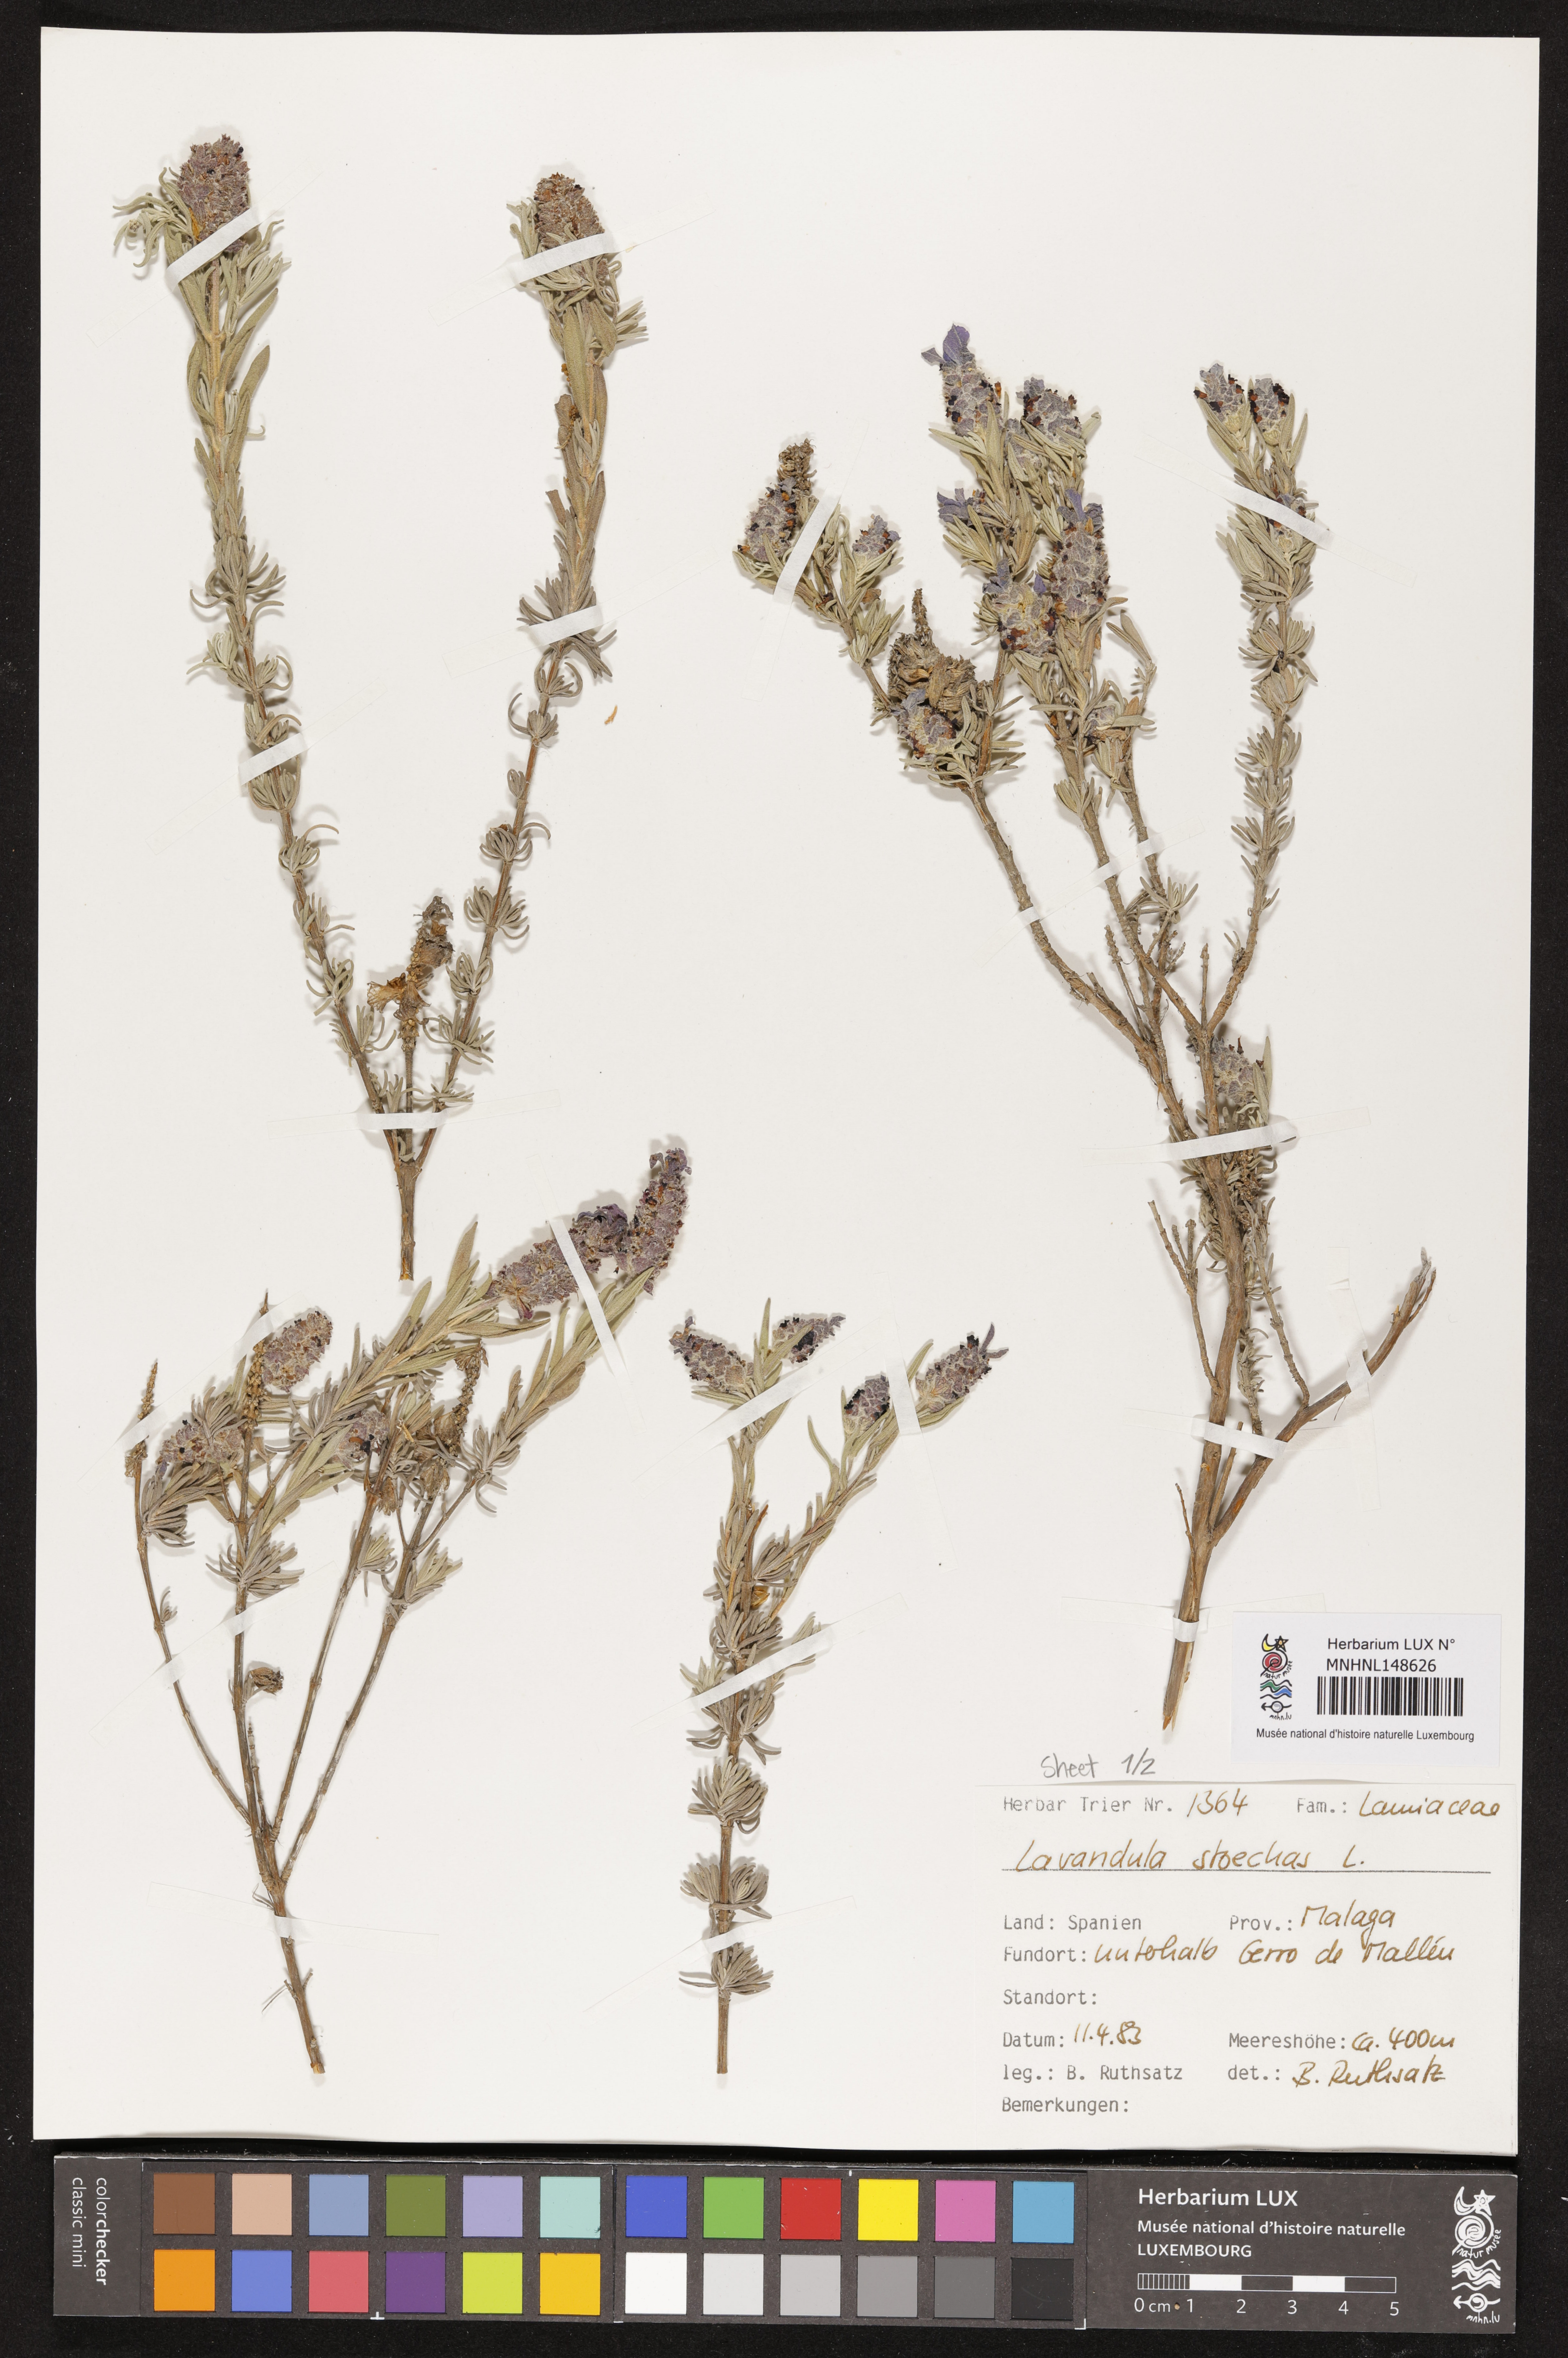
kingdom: Plantae
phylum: Tracheophyta
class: Magnoliopsida
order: Lamiales
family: Lamiaceae
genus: Lavandula
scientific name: Lavandula stoechas
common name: French lavender
